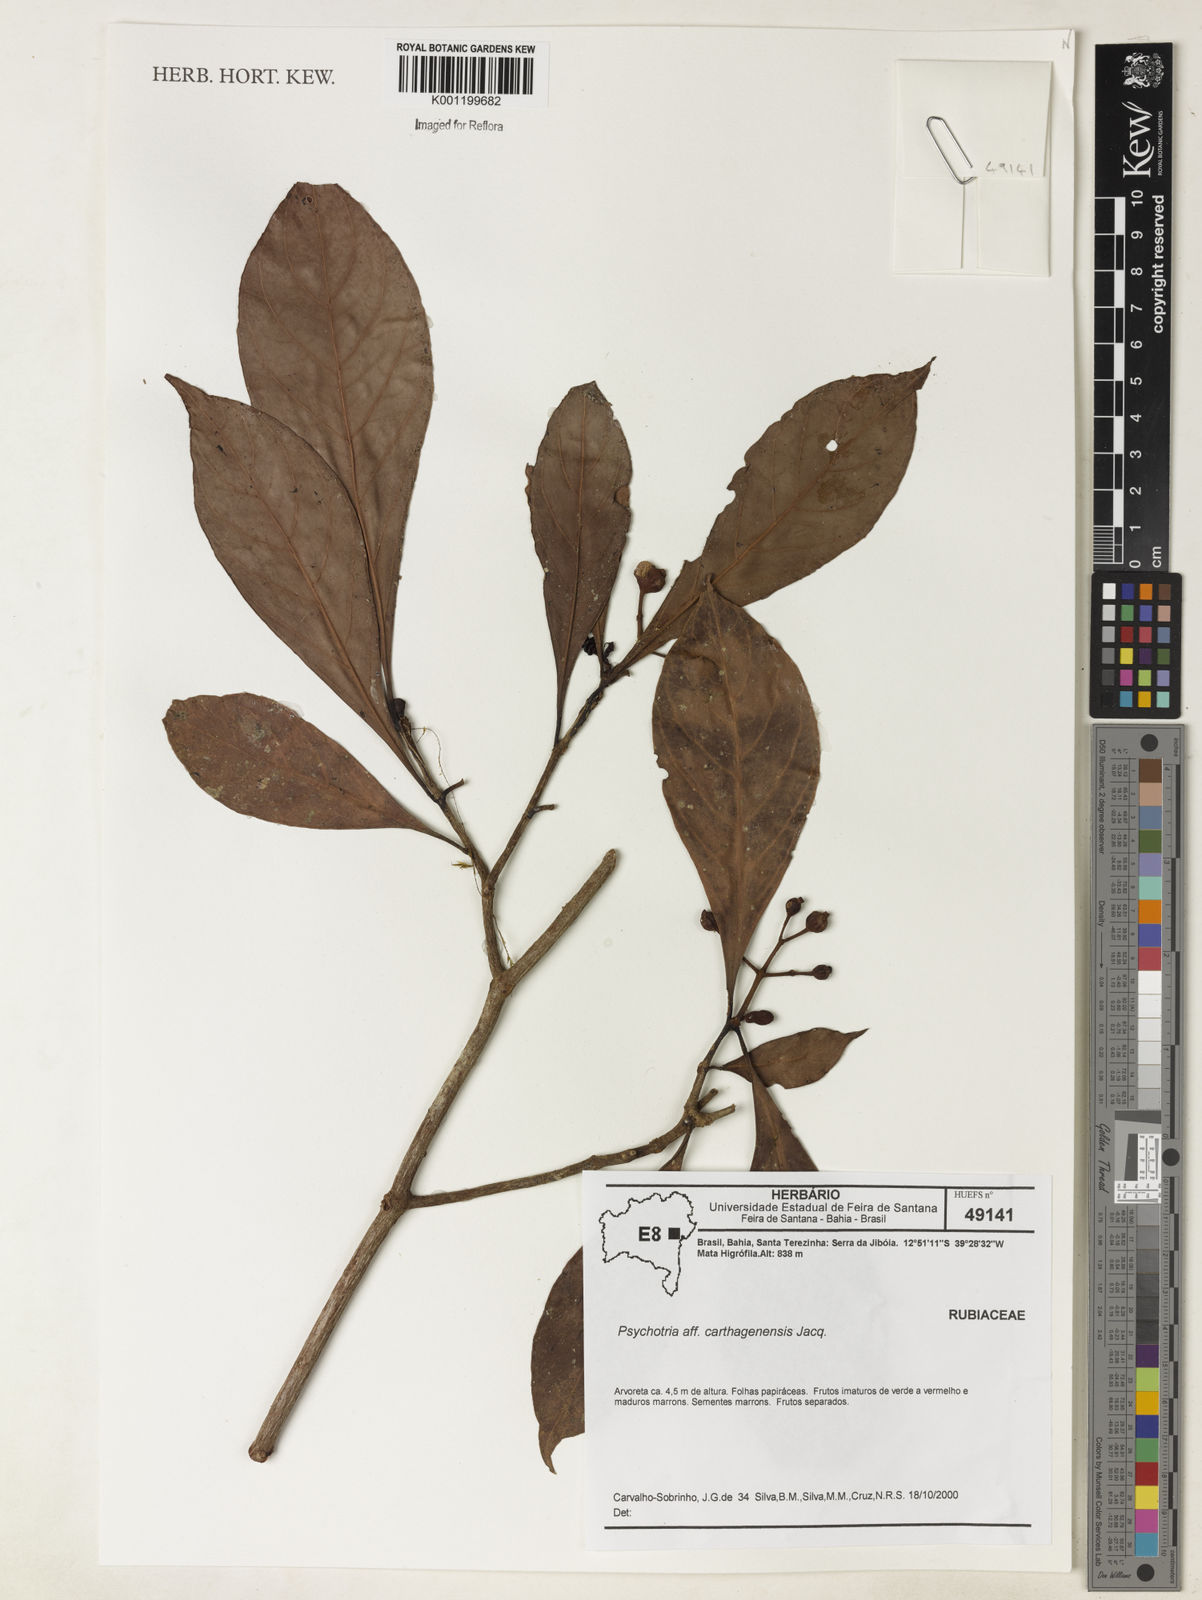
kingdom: Plantae
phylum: Tracheophyta
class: Magnoliopsida
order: Gentianales
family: Rubiaceae
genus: Psychotria
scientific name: Psychotria carthagenensis
